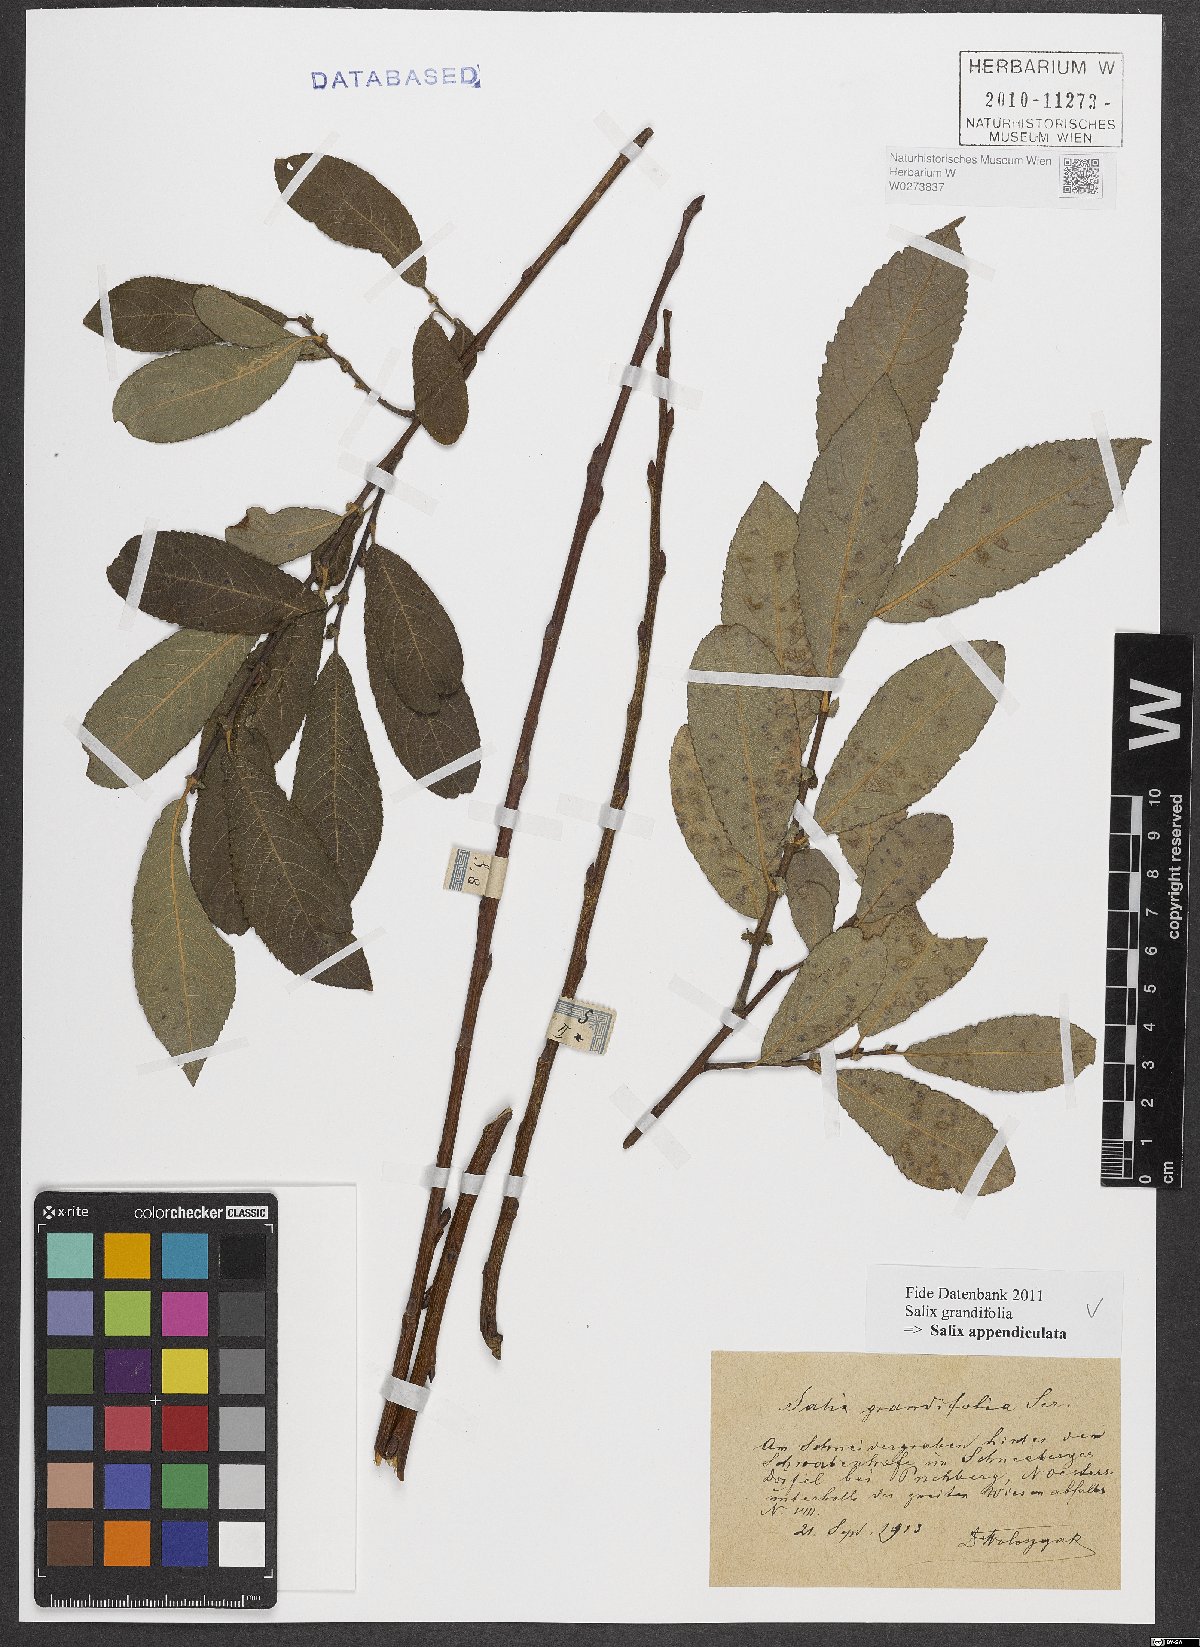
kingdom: Plantae
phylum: Tracheophyta
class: Magnoliopsida
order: Malpighiales
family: Salicaceae
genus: Salix
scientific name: Salix appendiculata
